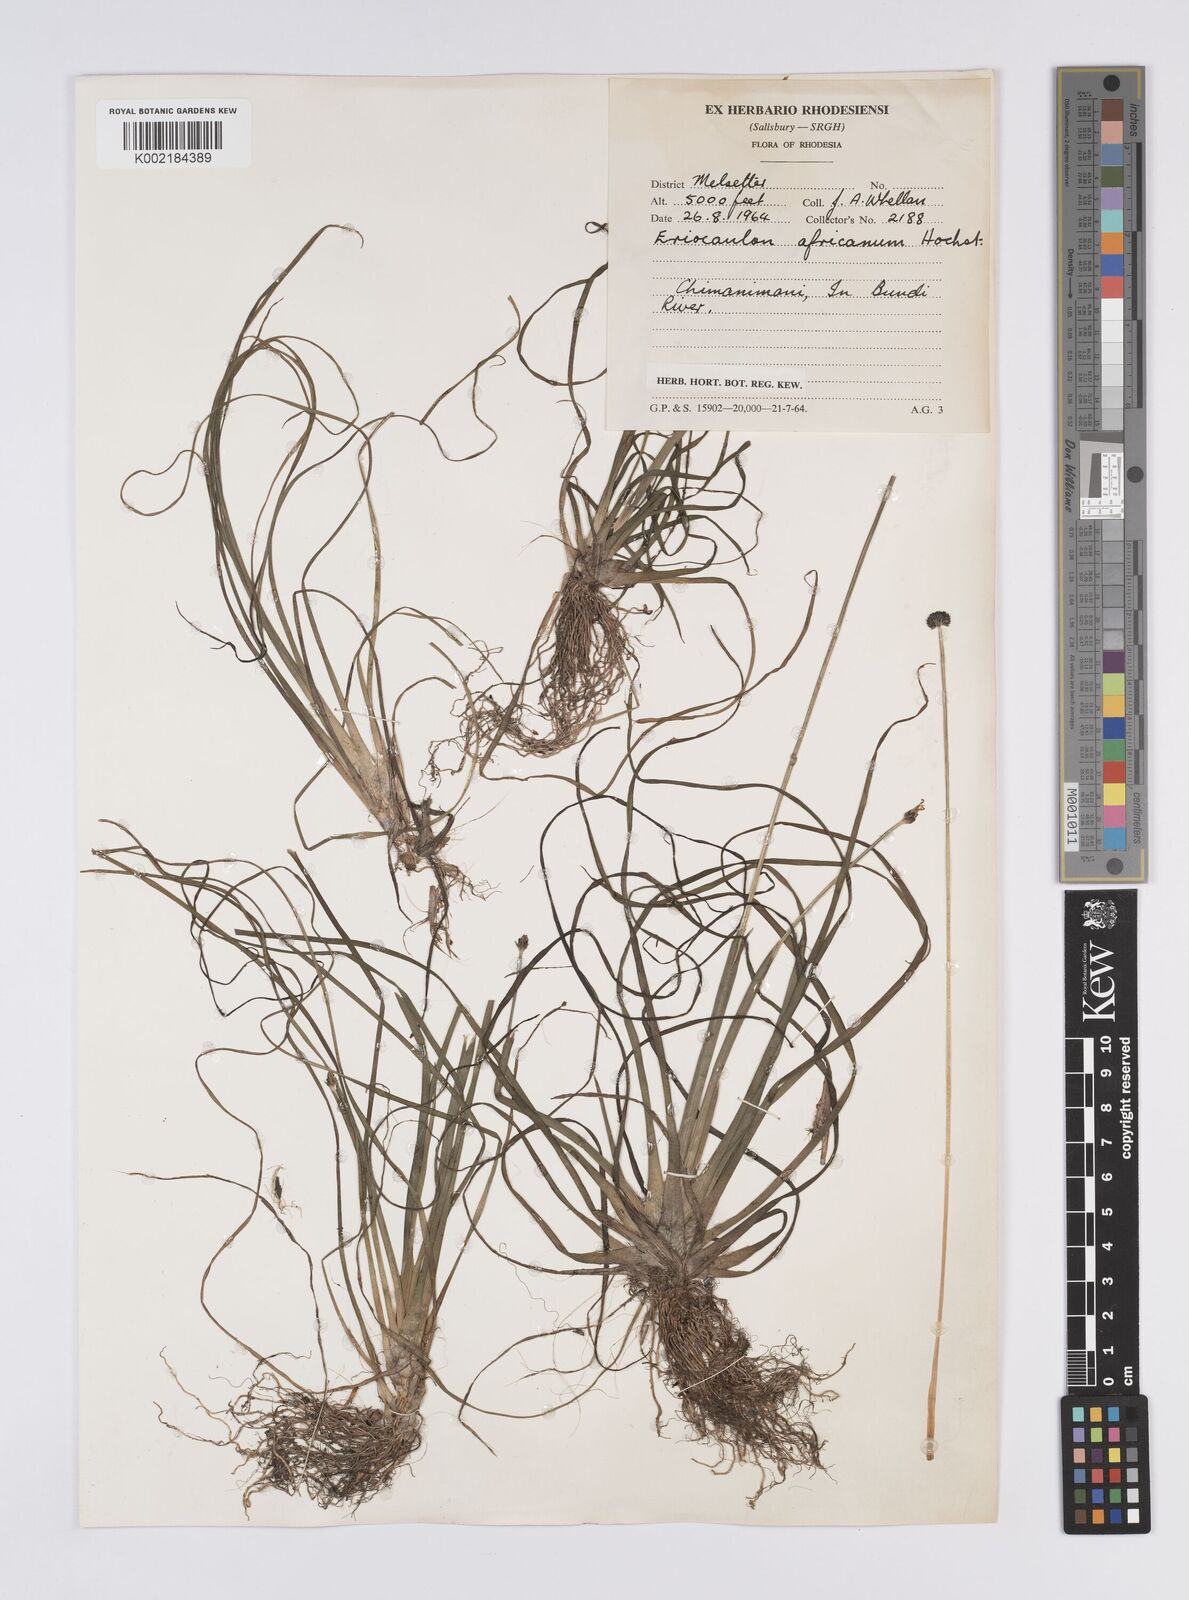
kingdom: Plantae
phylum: Tracheophyta
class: Liliopsida
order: Poales
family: Eriocaulaceae
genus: Eriocaulon
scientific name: Eriocaulon africanum
